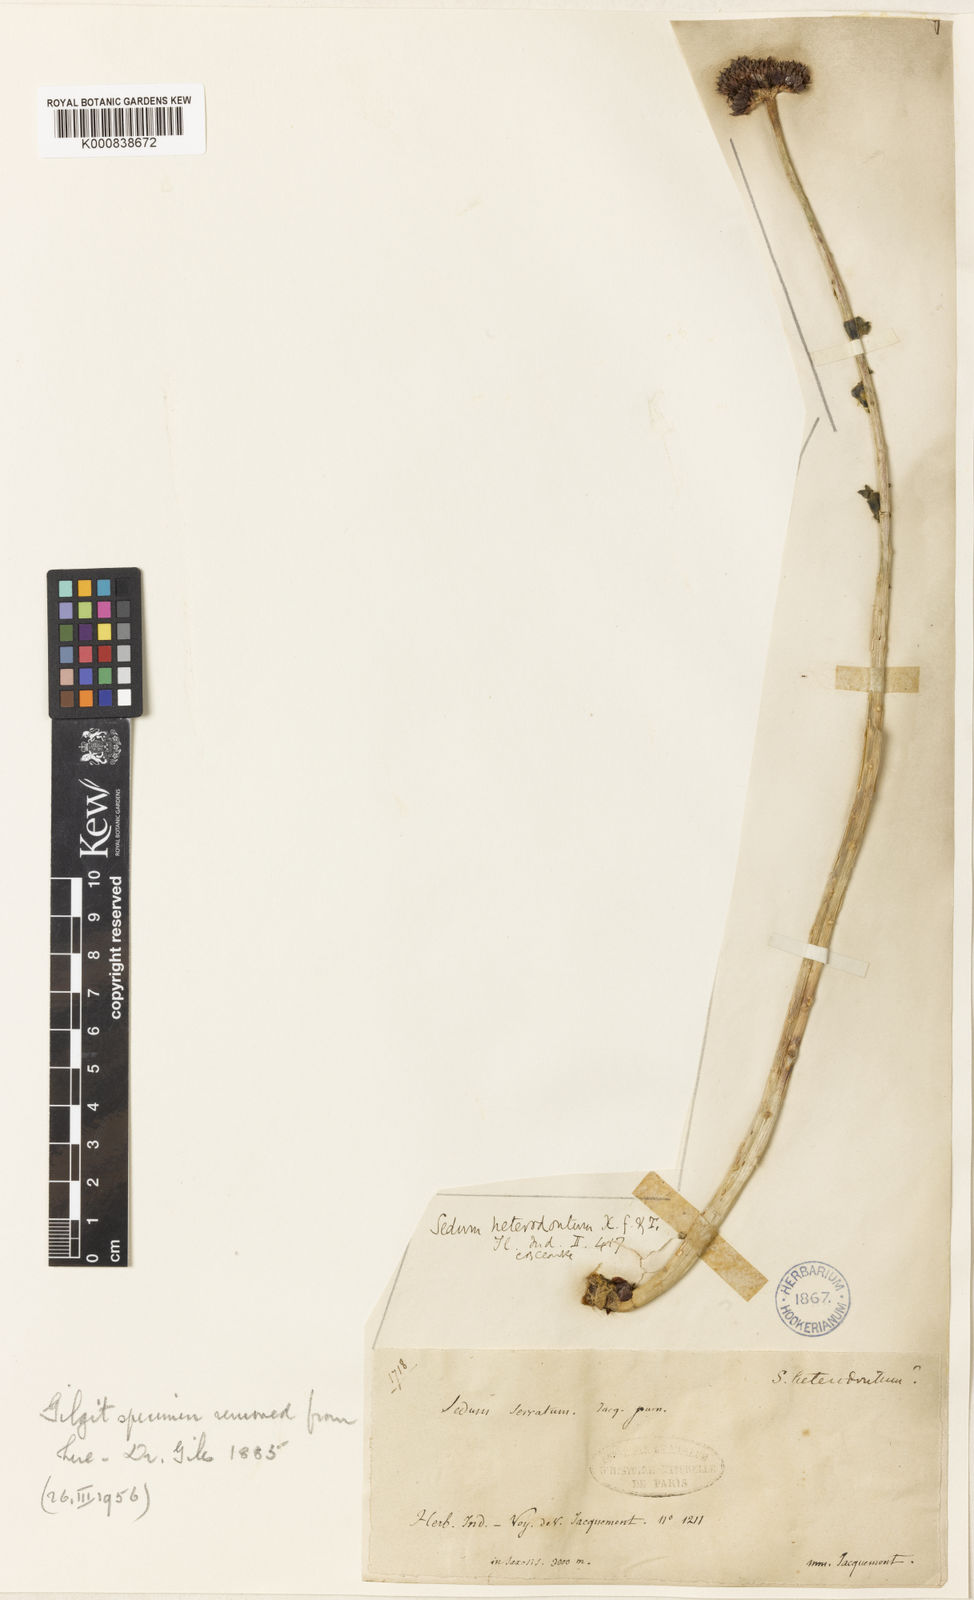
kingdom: Plantae
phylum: Tracheophyta
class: Magnoliopsida
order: Saxifragales
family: Crassulaceae
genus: Rhodiola
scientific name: Rhodiola heterodonta
